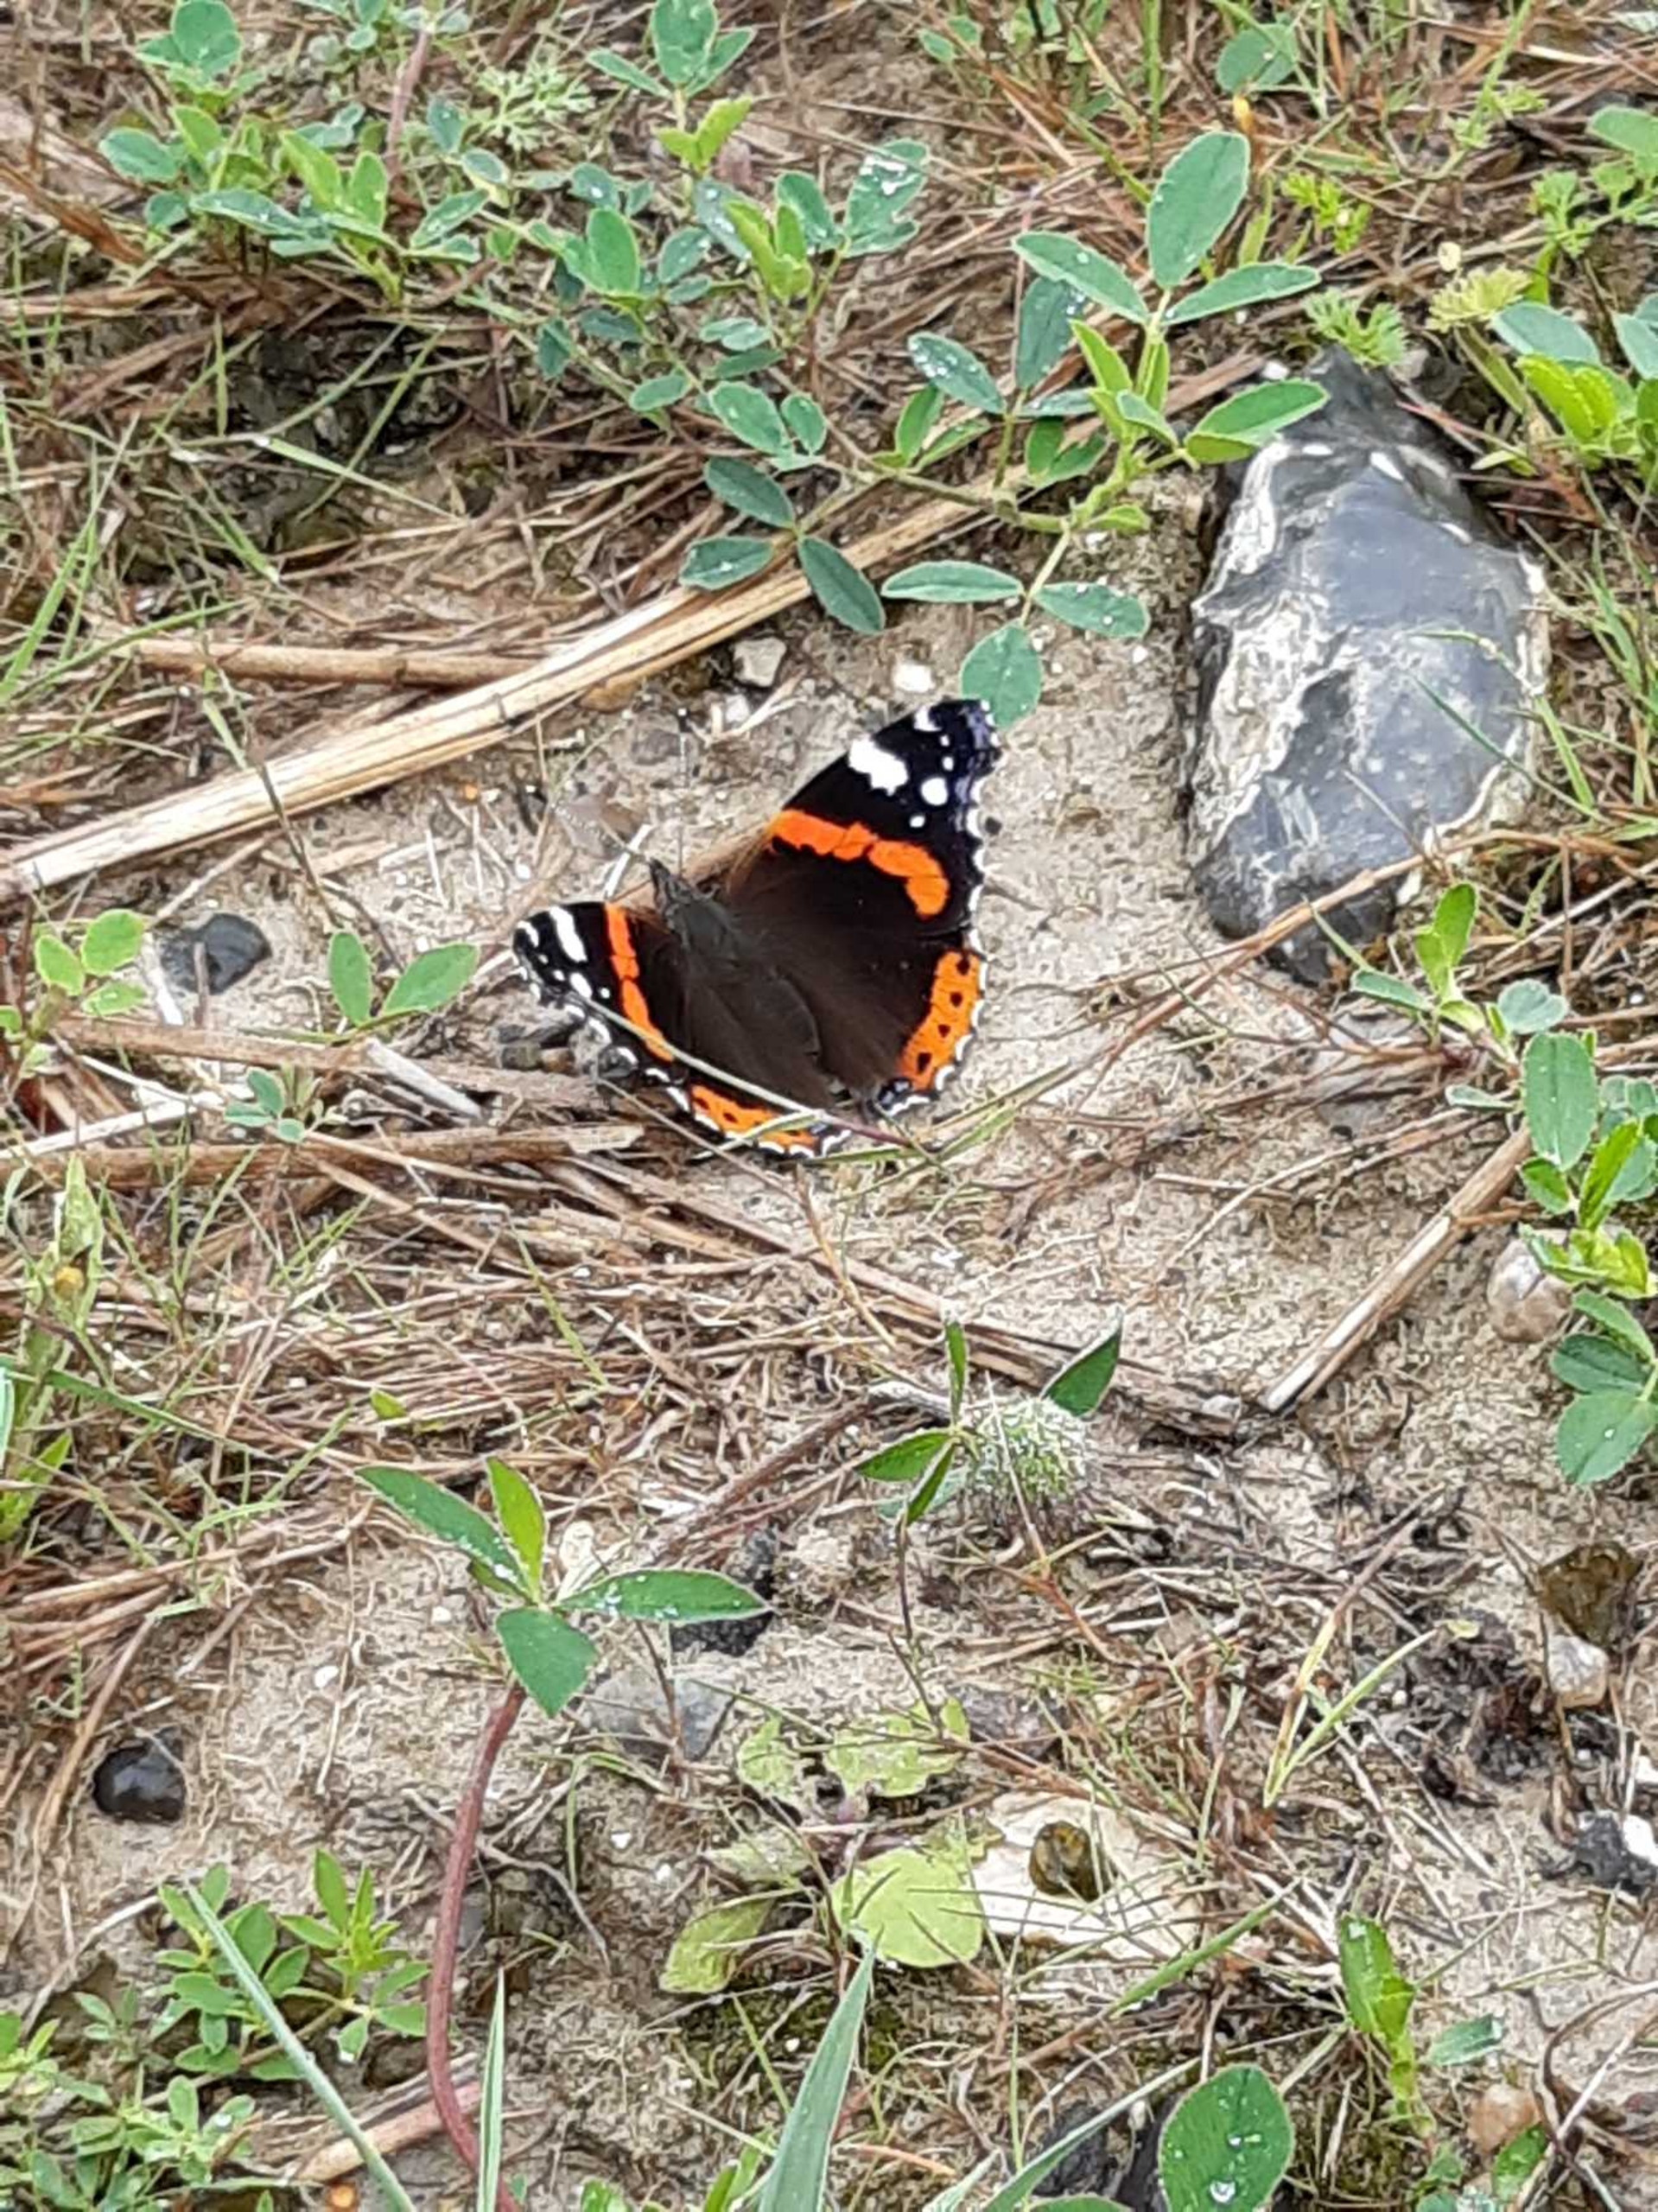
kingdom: Animalia
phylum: Arthropoda
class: Insecta
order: Lepidoptera
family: Nymphalidae
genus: Vanessa
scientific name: Vanessa atalanta
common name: Admiral
